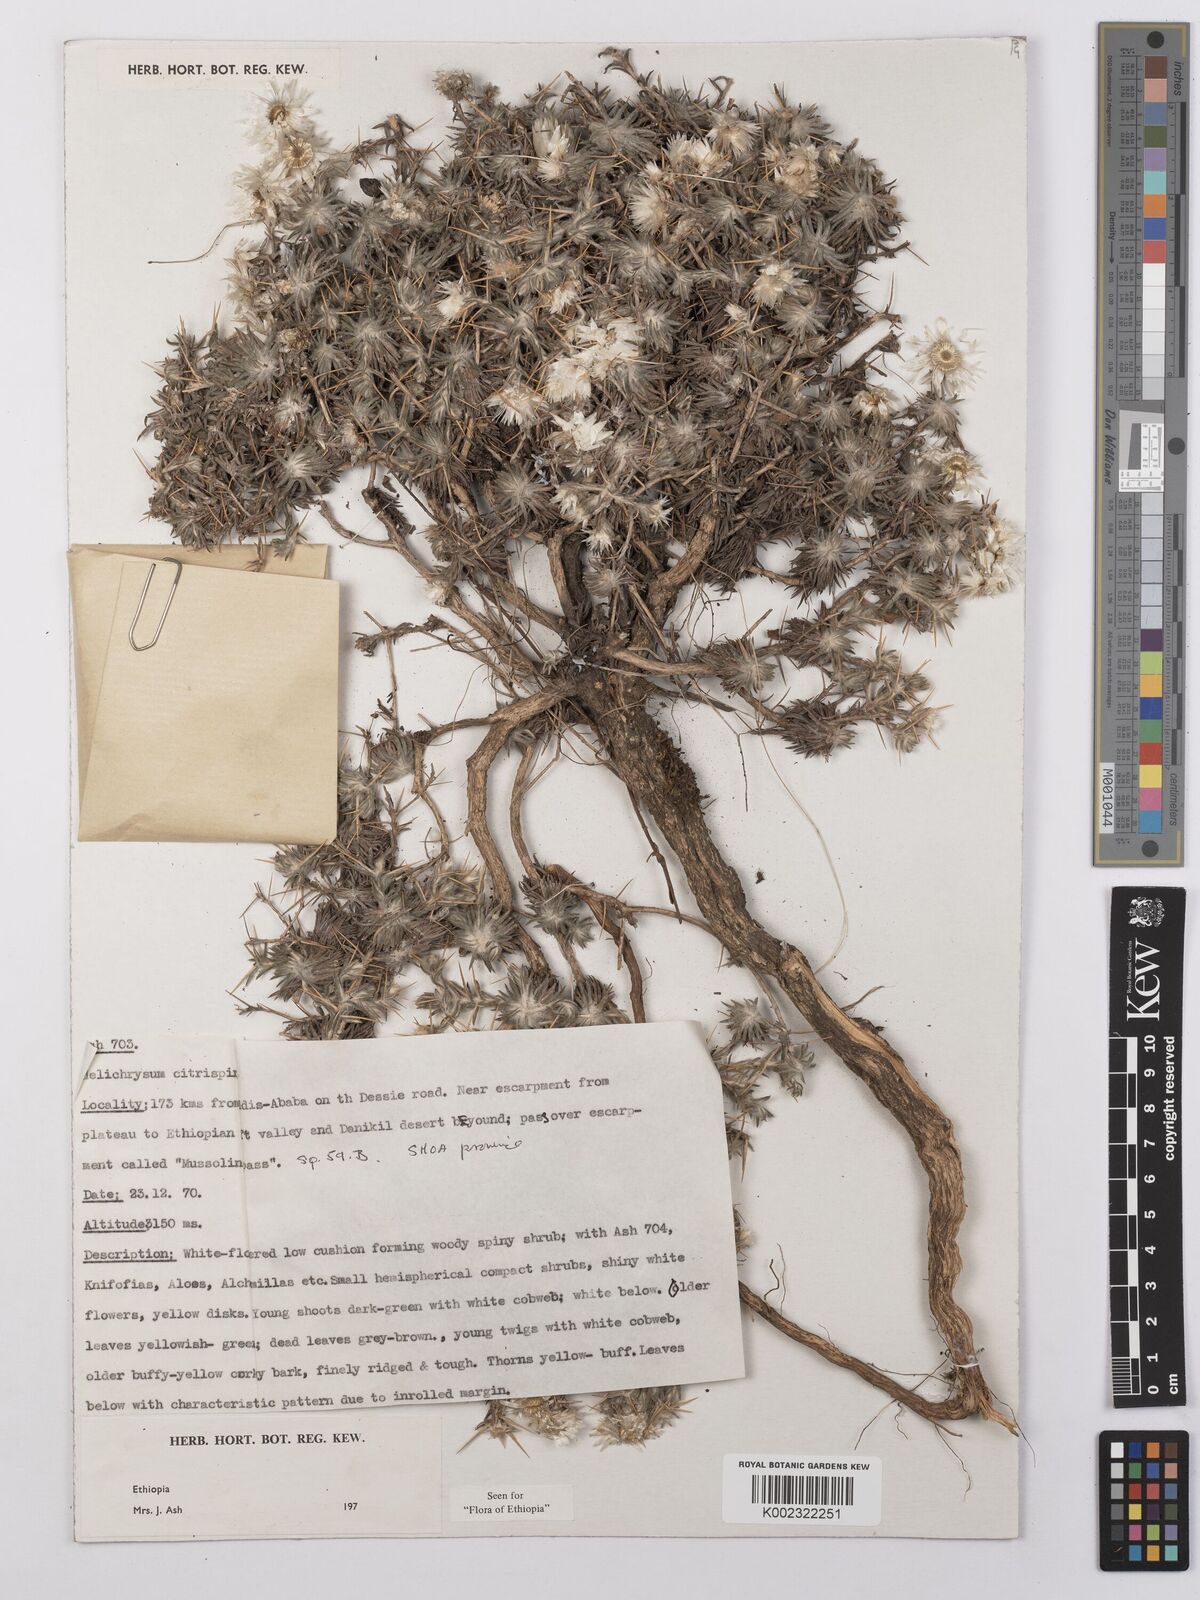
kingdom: Plantae
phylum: Tracheophyta
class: Magnoliopsida
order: Asterales
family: Asteraceae
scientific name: Asteraceae
